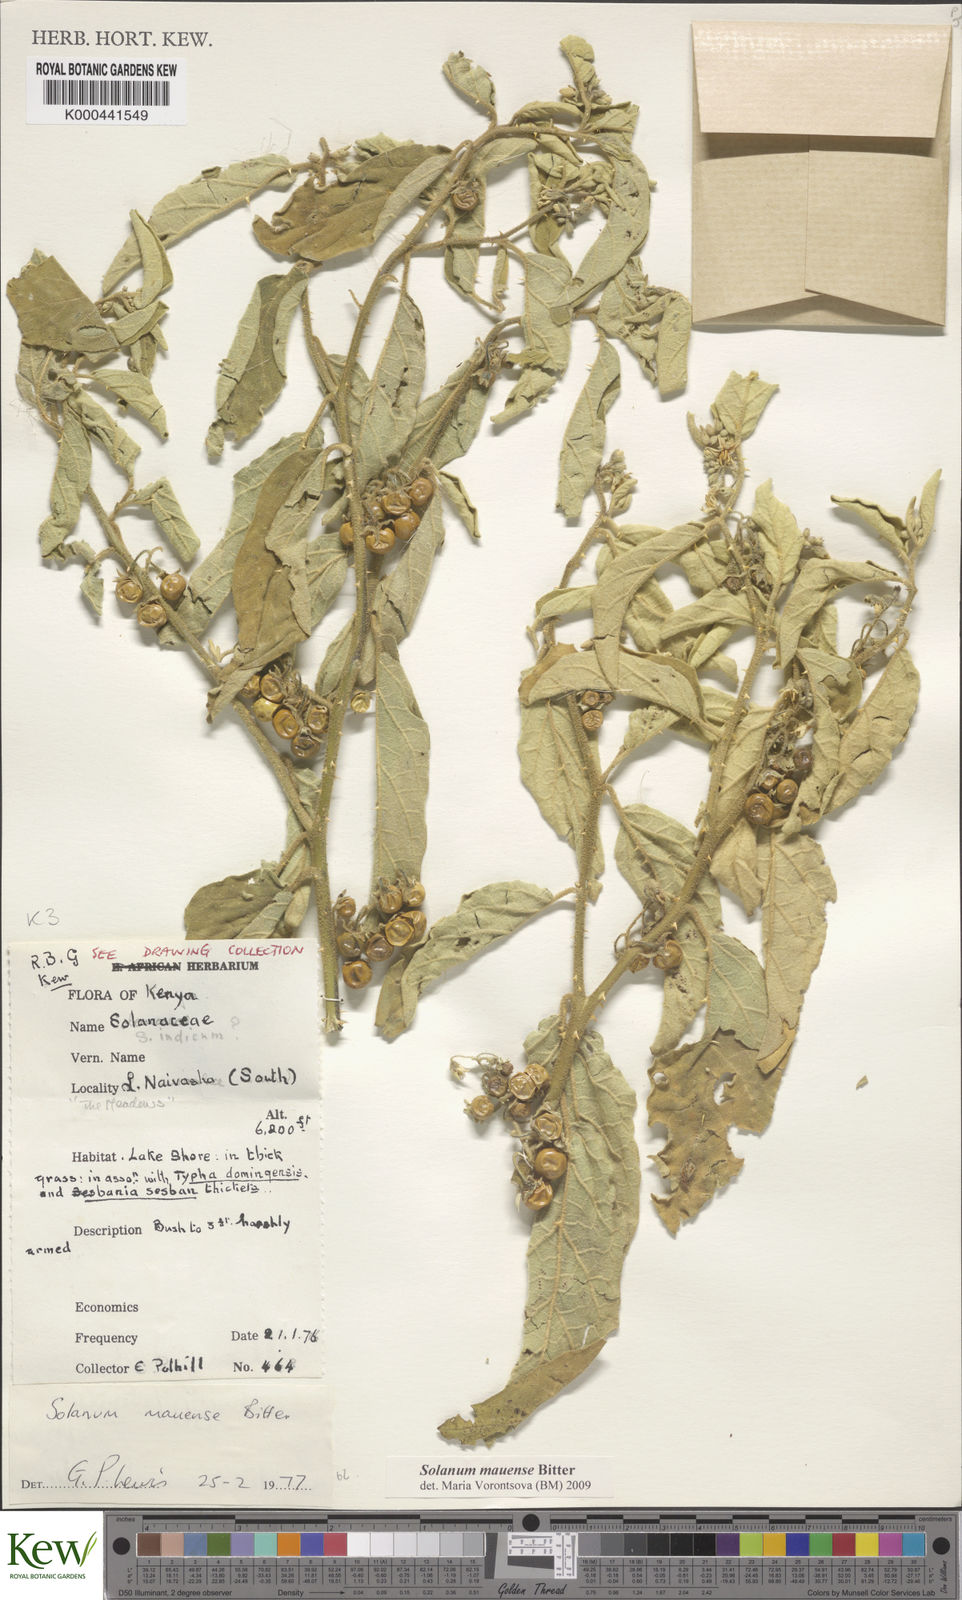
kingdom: Plantae
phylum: Tracheophyta
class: Magnoliopsida
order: Solanales
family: Solanaceae
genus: Solanum
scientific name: Solanum mauense
